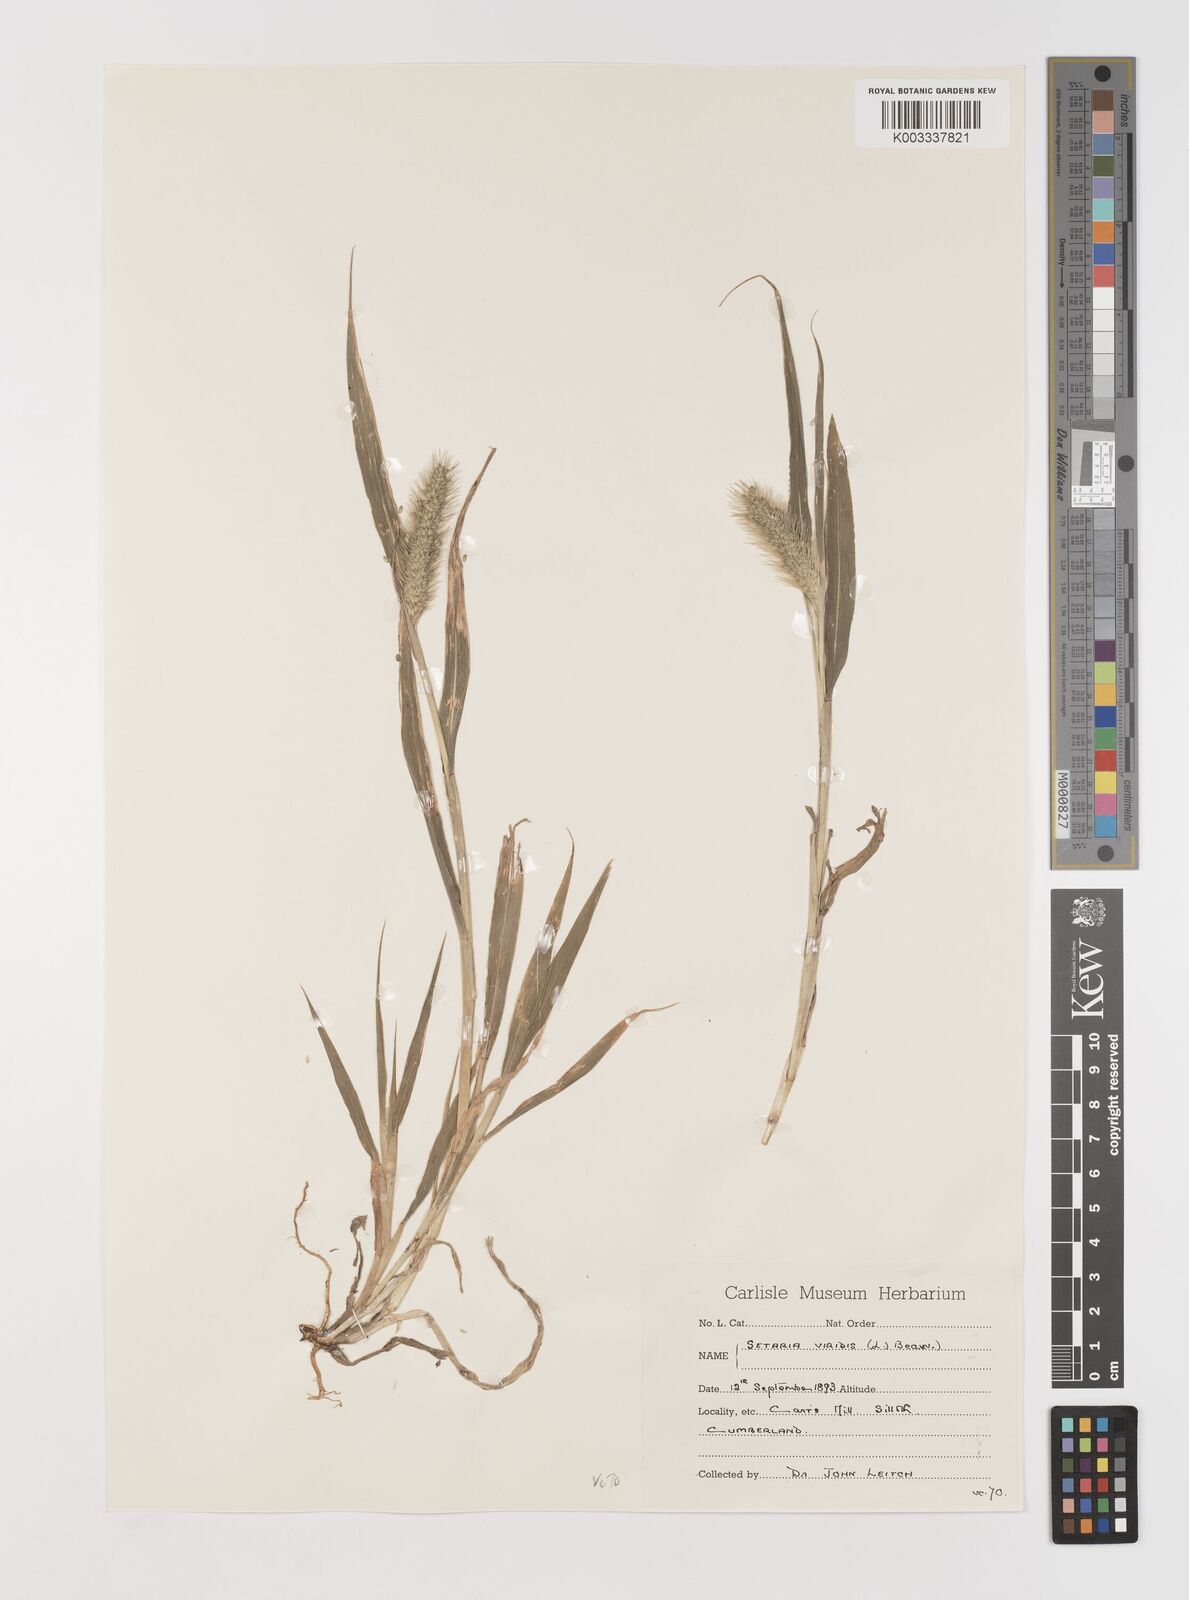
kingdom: Plantae
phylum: Tracheophyta
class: Liliopsida
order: Poales
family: Poaceae
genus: Setaria
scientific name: Setaria viridis
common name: Green bristlegrass
